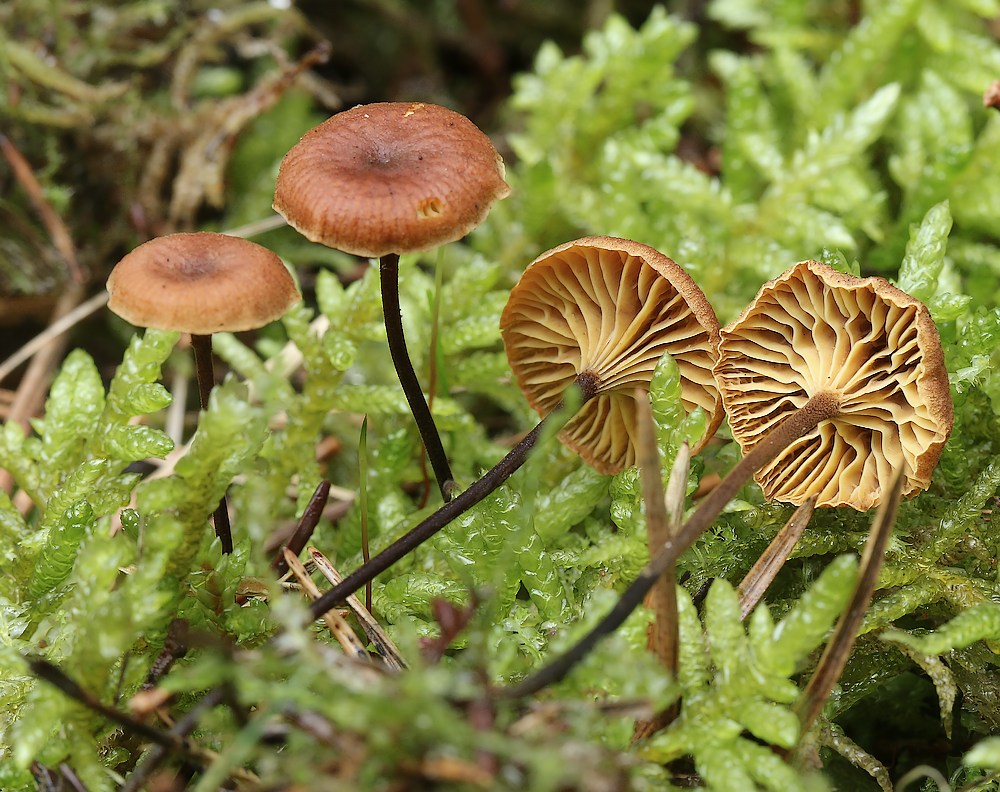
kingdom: Fungi
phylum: Basidiomycota
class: Agaricomycetes
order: Agaricales
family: Mycenaceae
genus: Xeromphalina
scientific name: Xeromphalina cauticinalis
